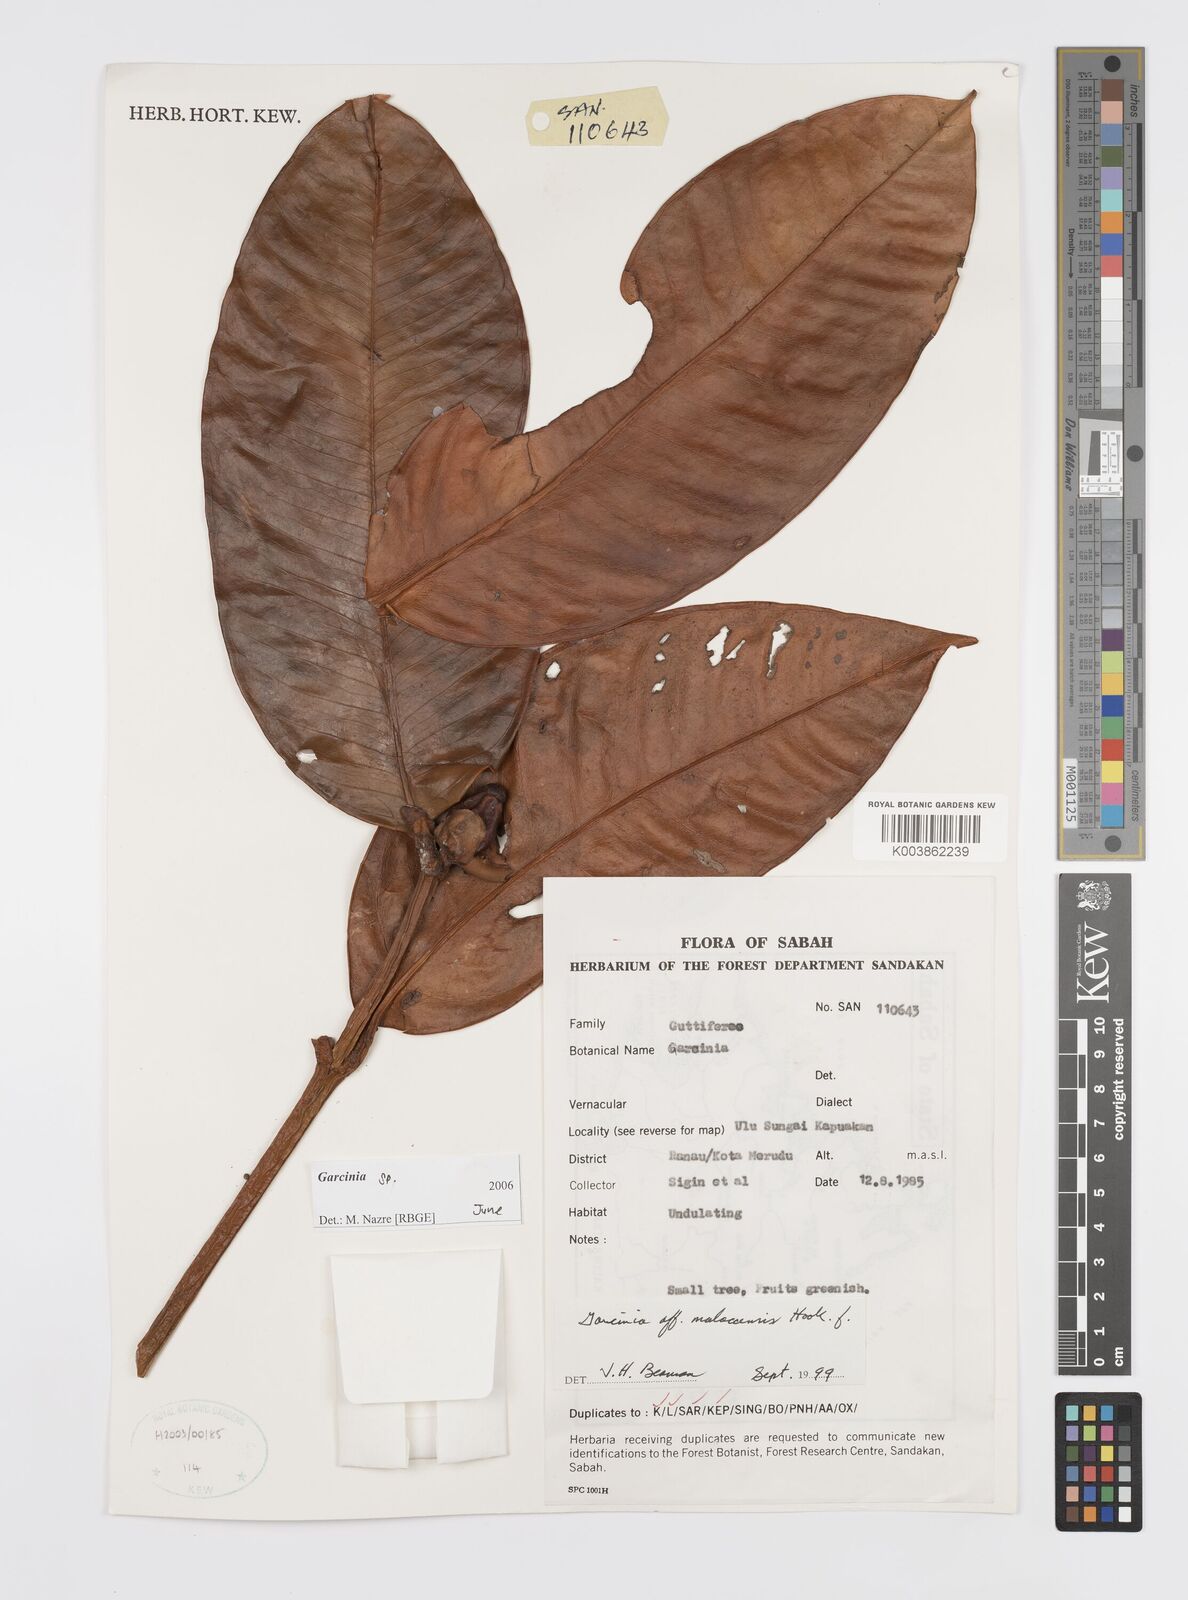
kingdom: Plantae
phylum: Tracheophyta
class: Magnoliopsida
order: Malpighiales
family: Clusiaceae
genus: Garcinia
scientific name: Garcinia
